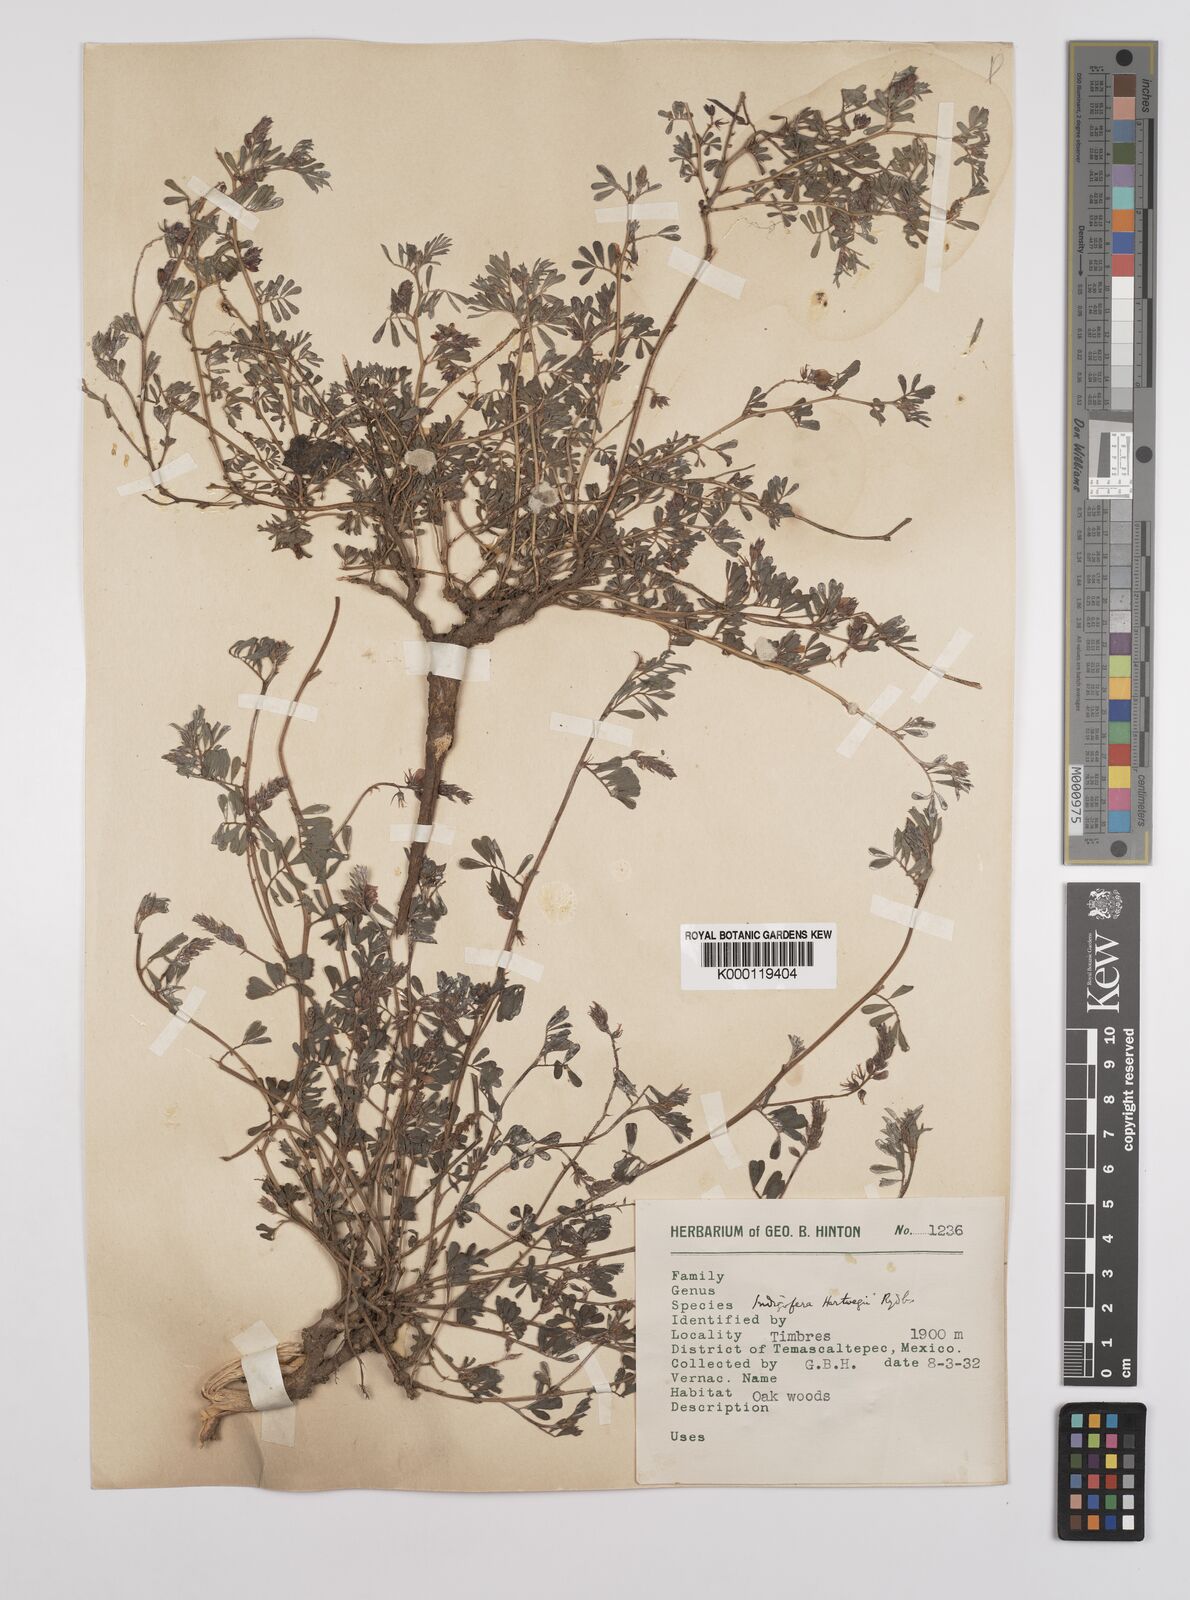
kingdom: Plantae
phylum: Tracheophyta
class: Magnoliopsida
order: Fabales
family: Fabaceae
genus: Indigofera
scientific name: Indigofera miniata
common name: Coast indigo
